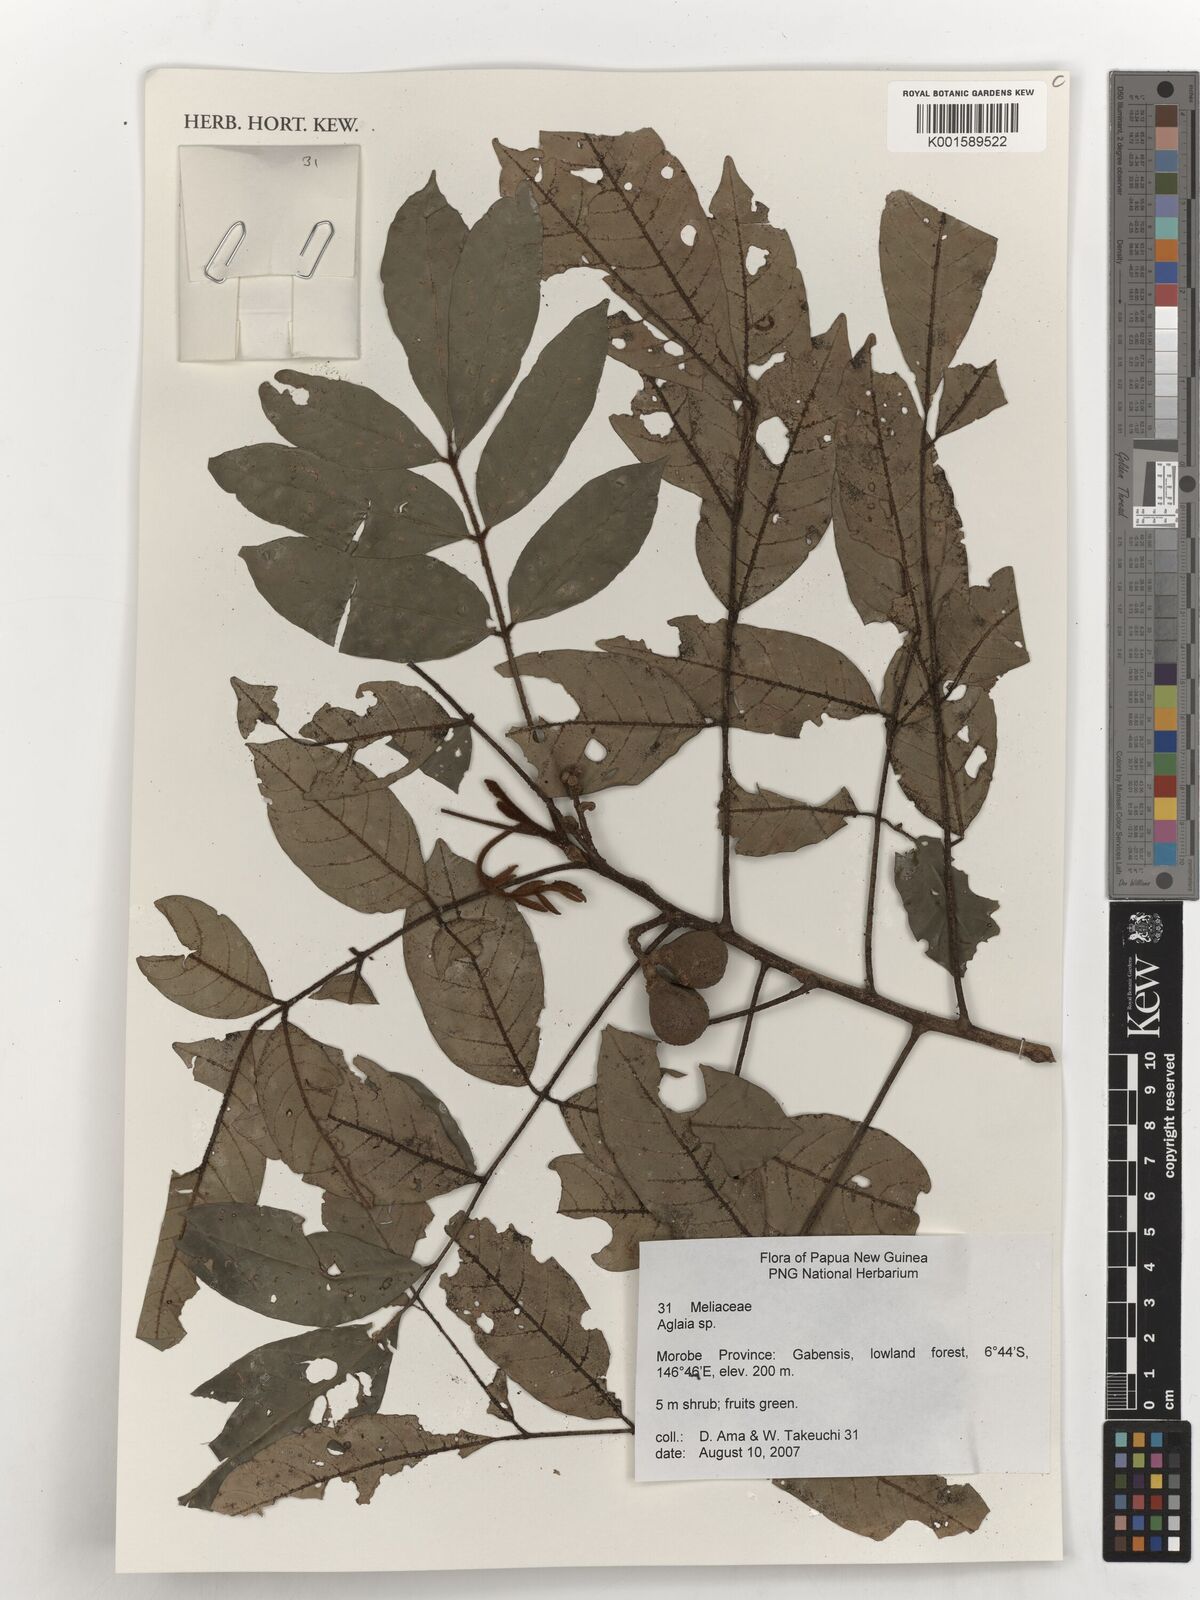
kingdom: Plantae
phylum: Tracheophyta
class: Magnoliopsida
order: Sapindales
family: Meliaceae
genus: Aglaia
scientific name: Aglaia
